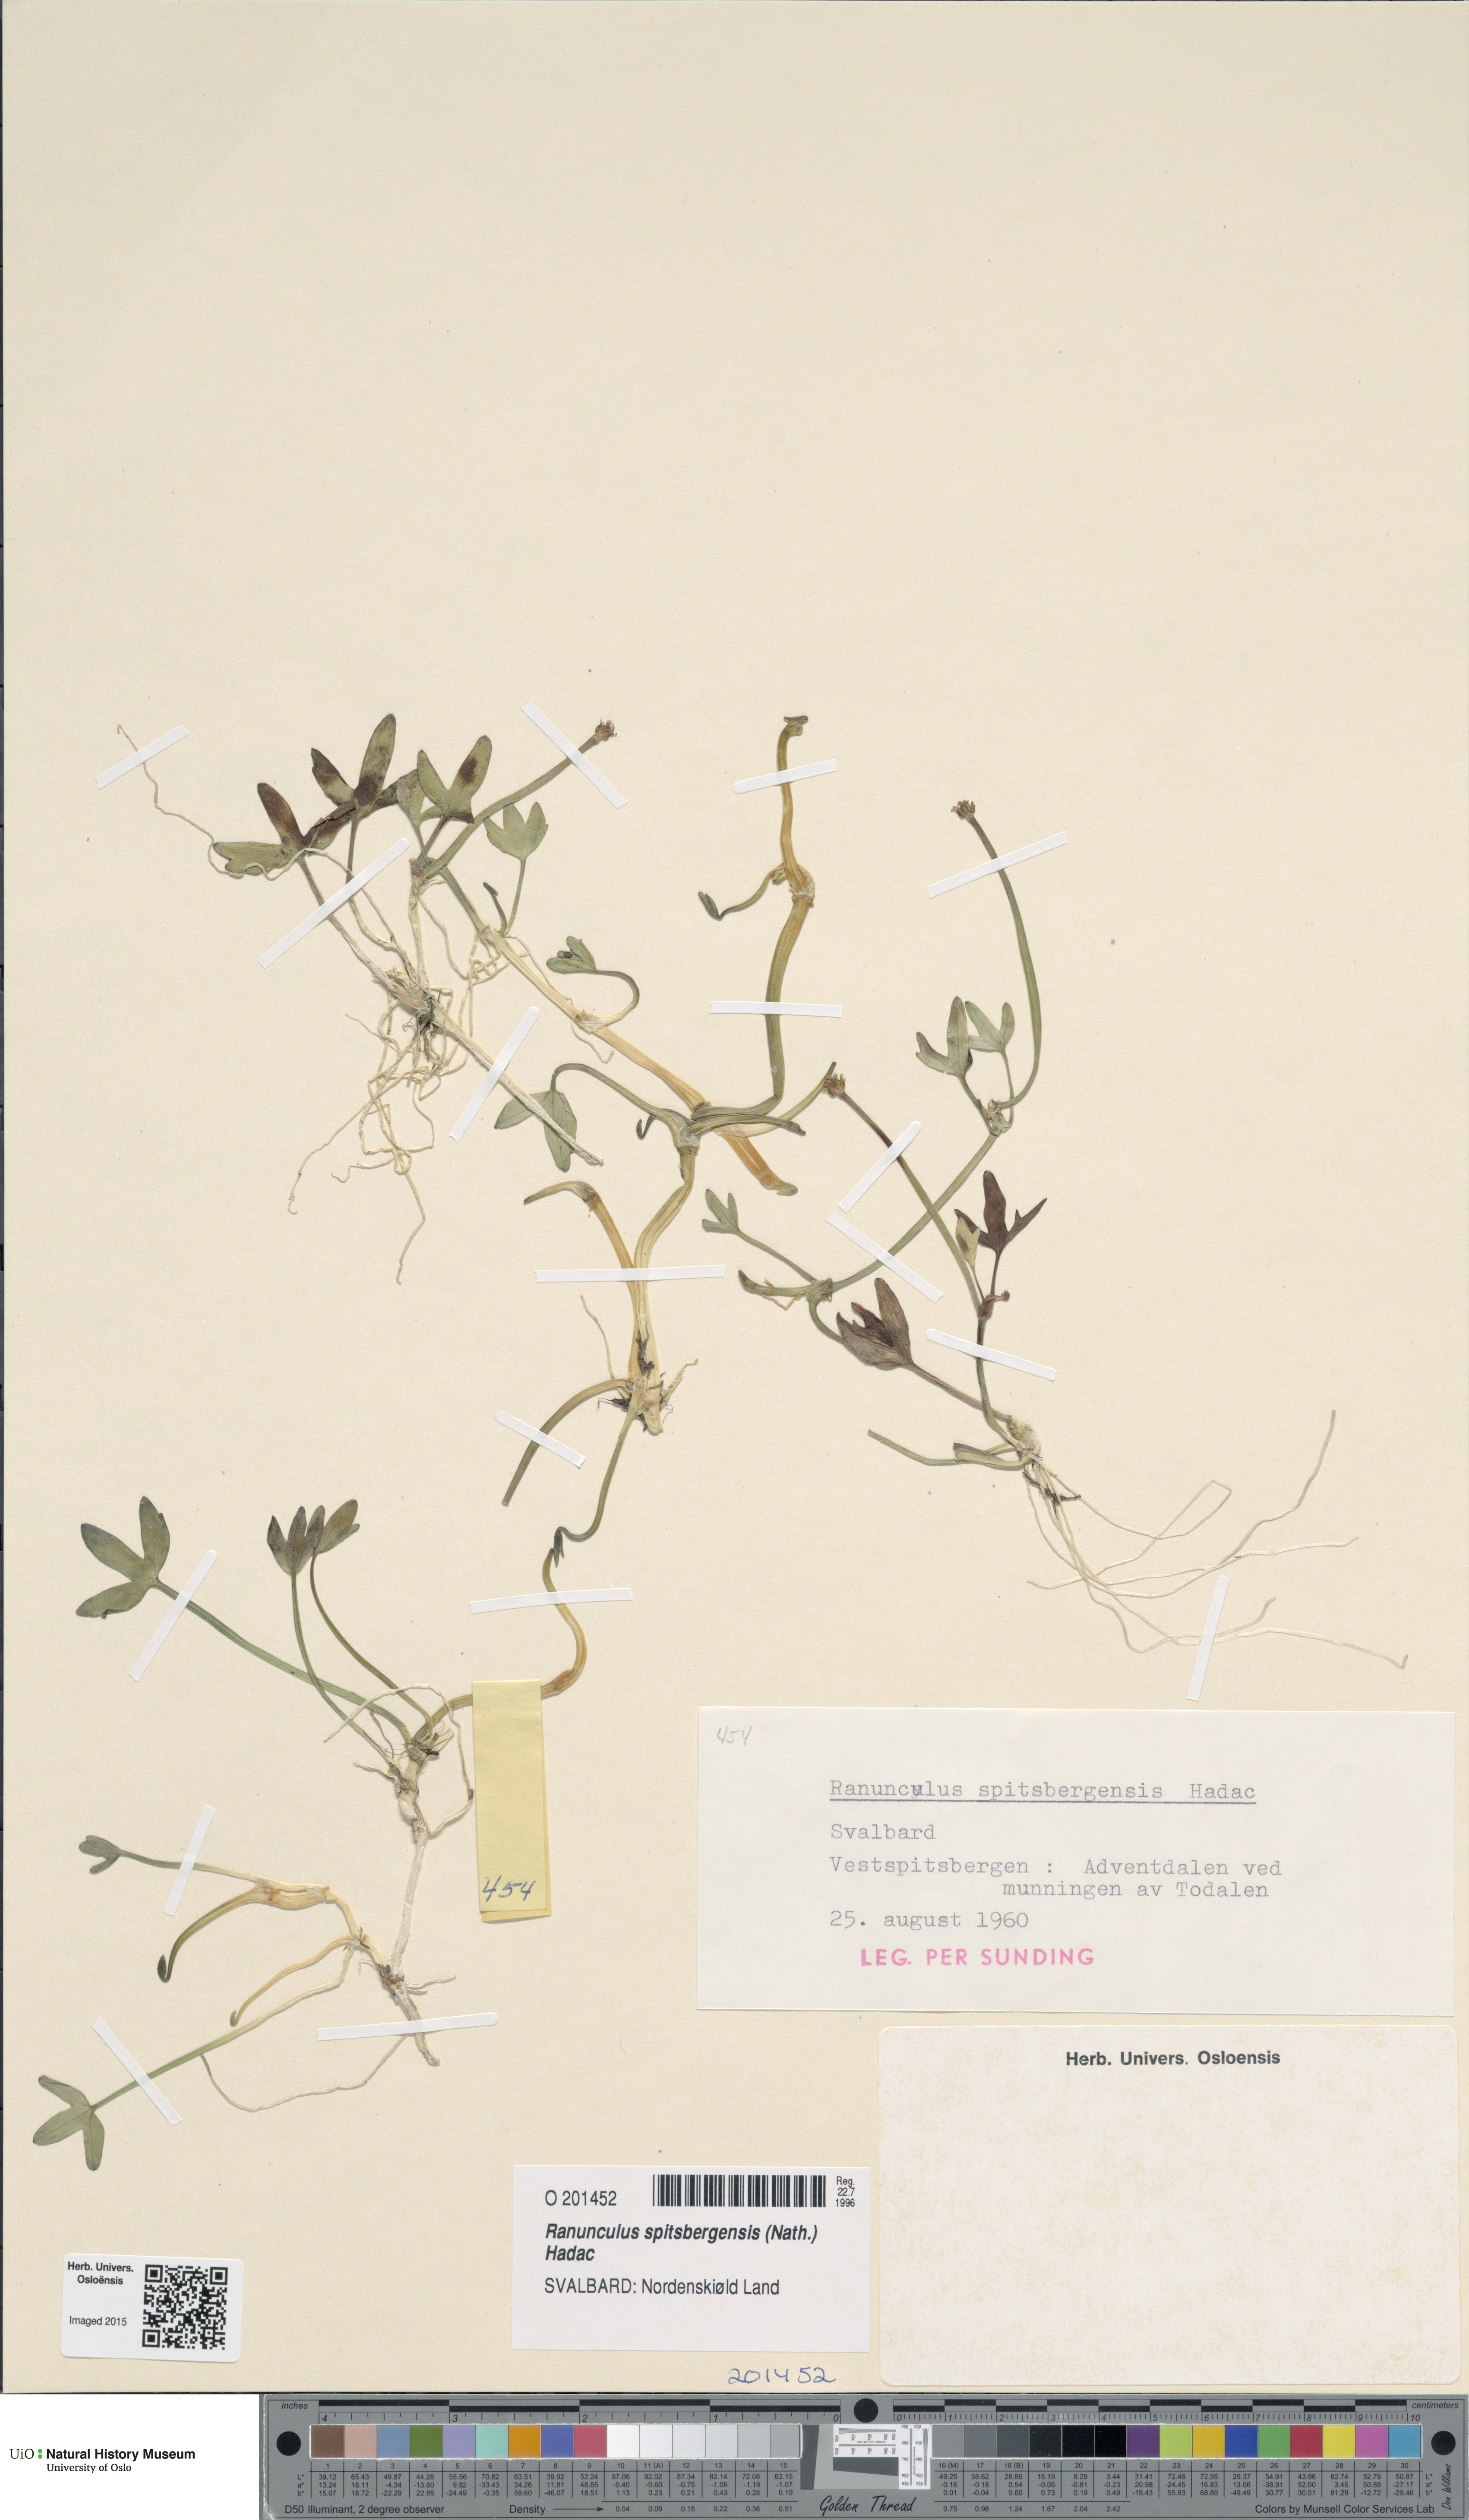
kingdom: Plantae
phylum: Tracheophyta
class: Magnoliopsida
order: Ranunculales
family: Ranunculaceae
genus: Coptidium
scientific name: Coptidium spitsbergense
